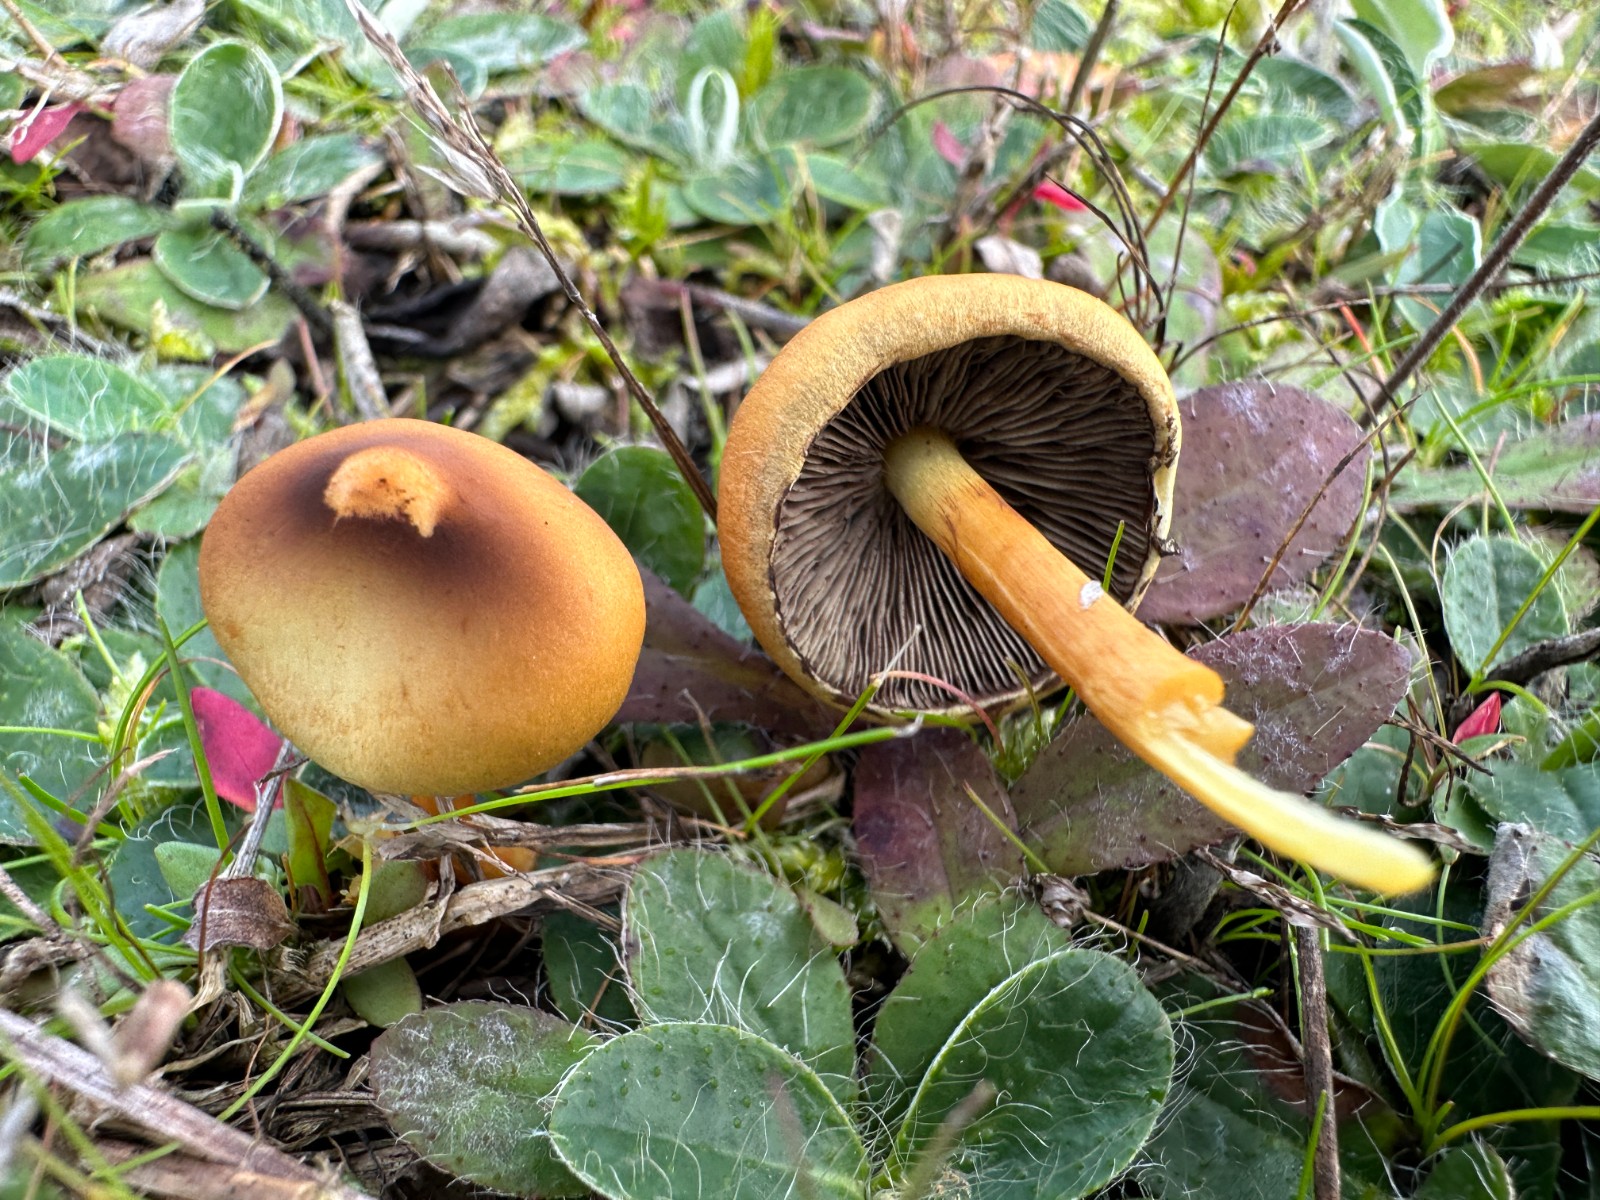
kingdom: Fungi
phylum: Basidiomycota
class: Agaricomycetes
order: Agaricales
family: Strophariaceae
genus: Hypholoma
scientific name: Hypholoma fasciculare
